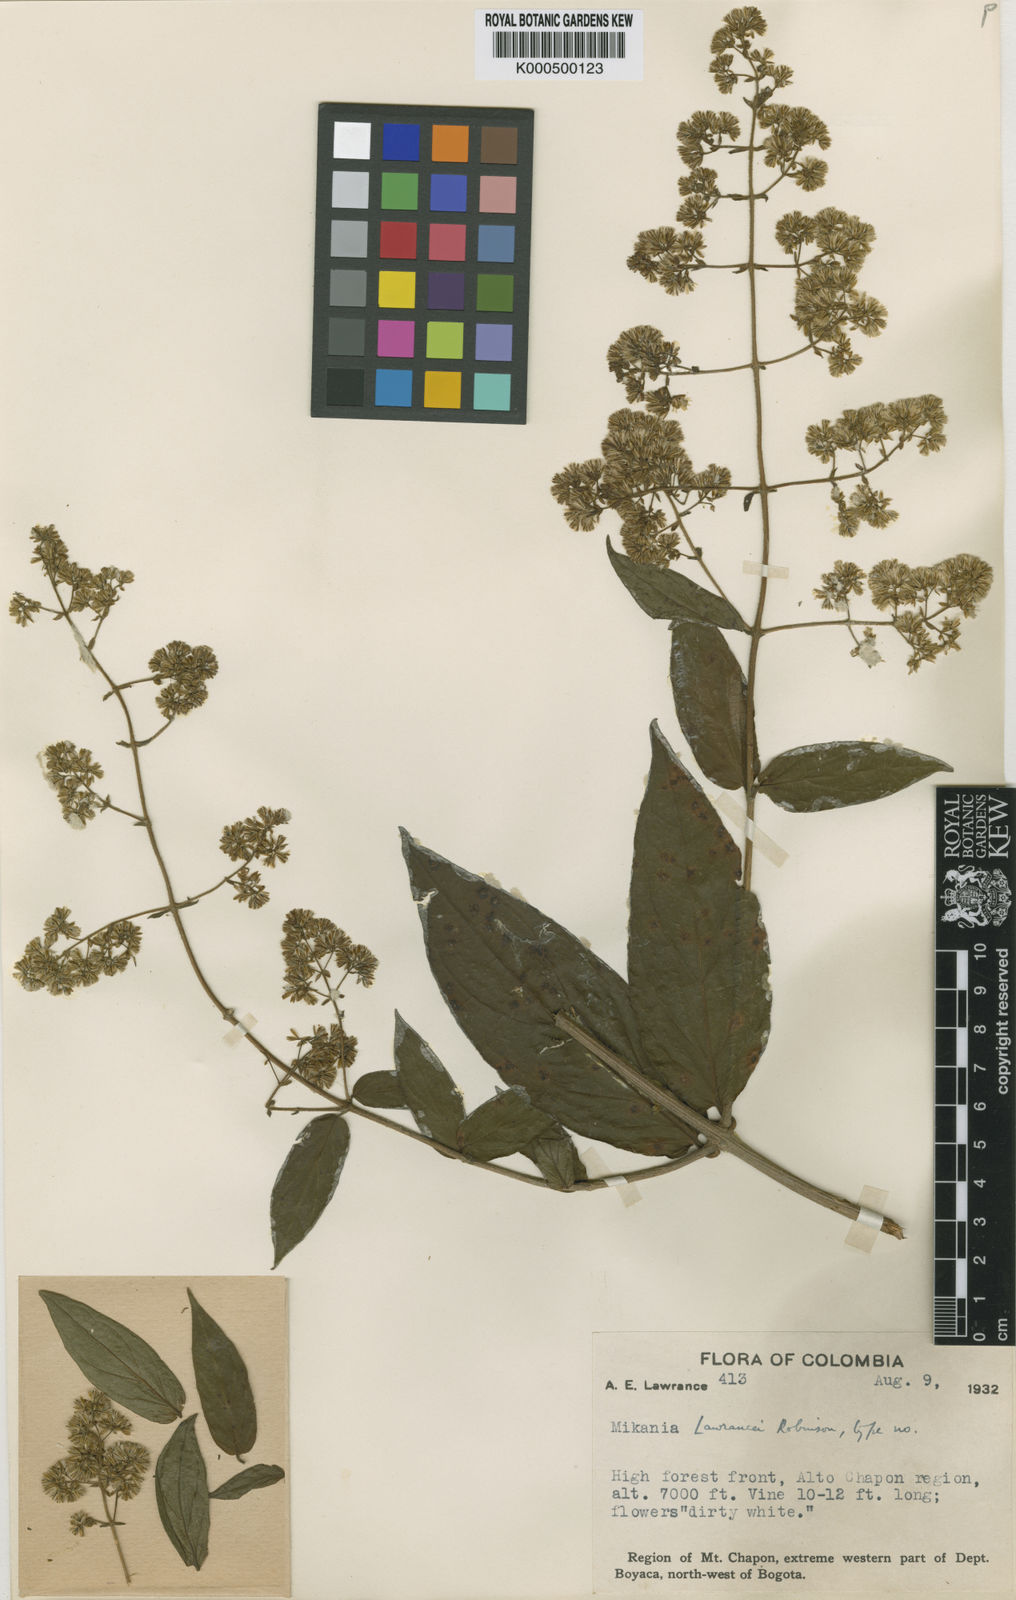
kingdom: Plantae
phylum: Tracheophyta
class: Magnoliopsida
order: Asterales
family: Asteraceae
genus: Mikania
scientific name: Mikania lawrancei
